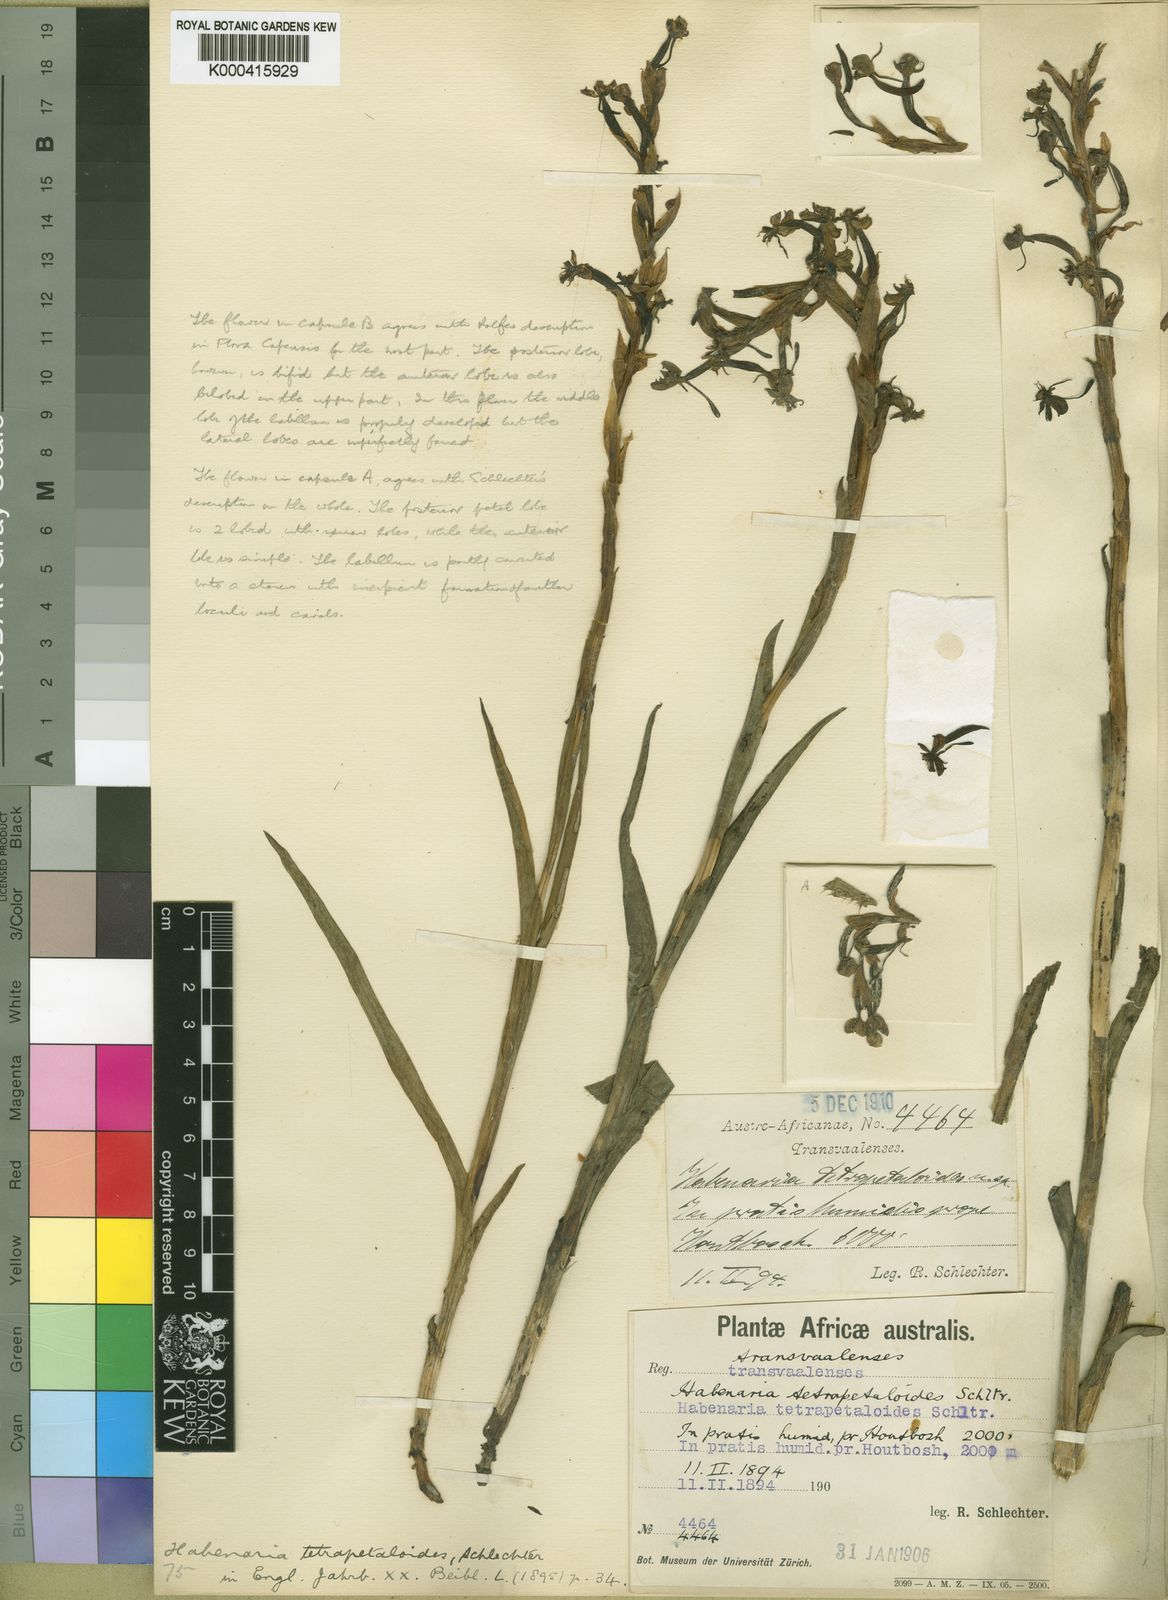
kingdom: Plantae
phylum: Tracheophyta
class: Liliopsida
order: Asparagales
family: Orchidaceae
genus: Habenaria
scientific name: Habenaria humilior
